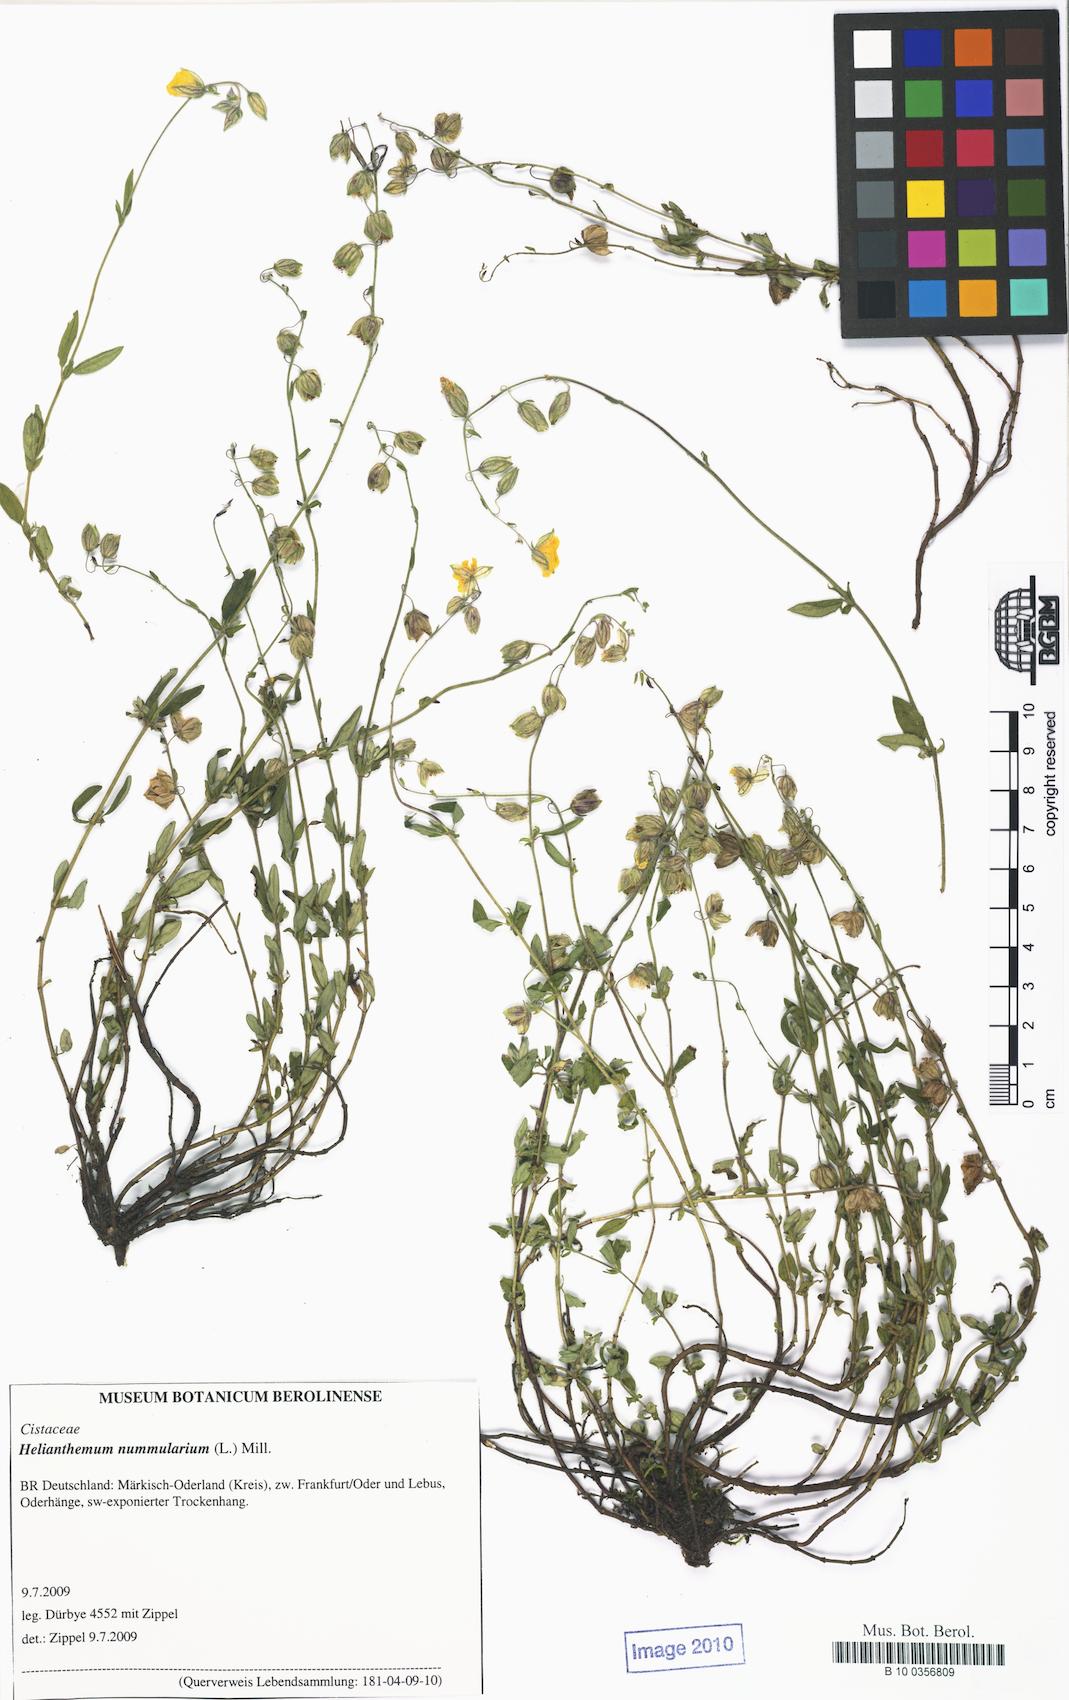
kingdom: Plantae
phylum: Tracheophyta
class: Magnoliopsida
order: Malvales
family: Cistaceae
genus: Helianthemum
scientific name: Helianthemum nummularium
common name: Common rock-rose
